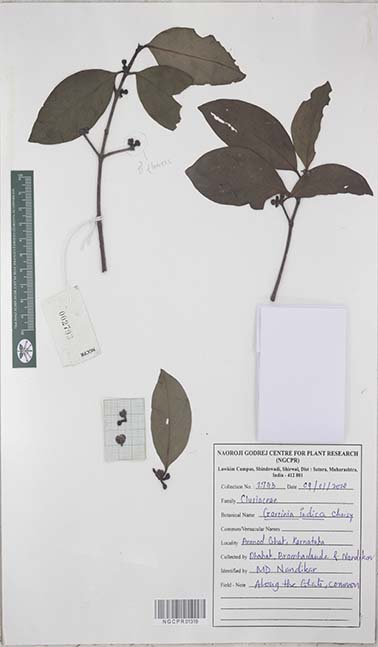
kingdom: Plantae
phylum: Tracheophyta
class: Magnoliopsida
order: Malpighiales
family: Clusiaceae
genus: Garcinia
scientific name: Garcinia indica
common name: Goa-butter
